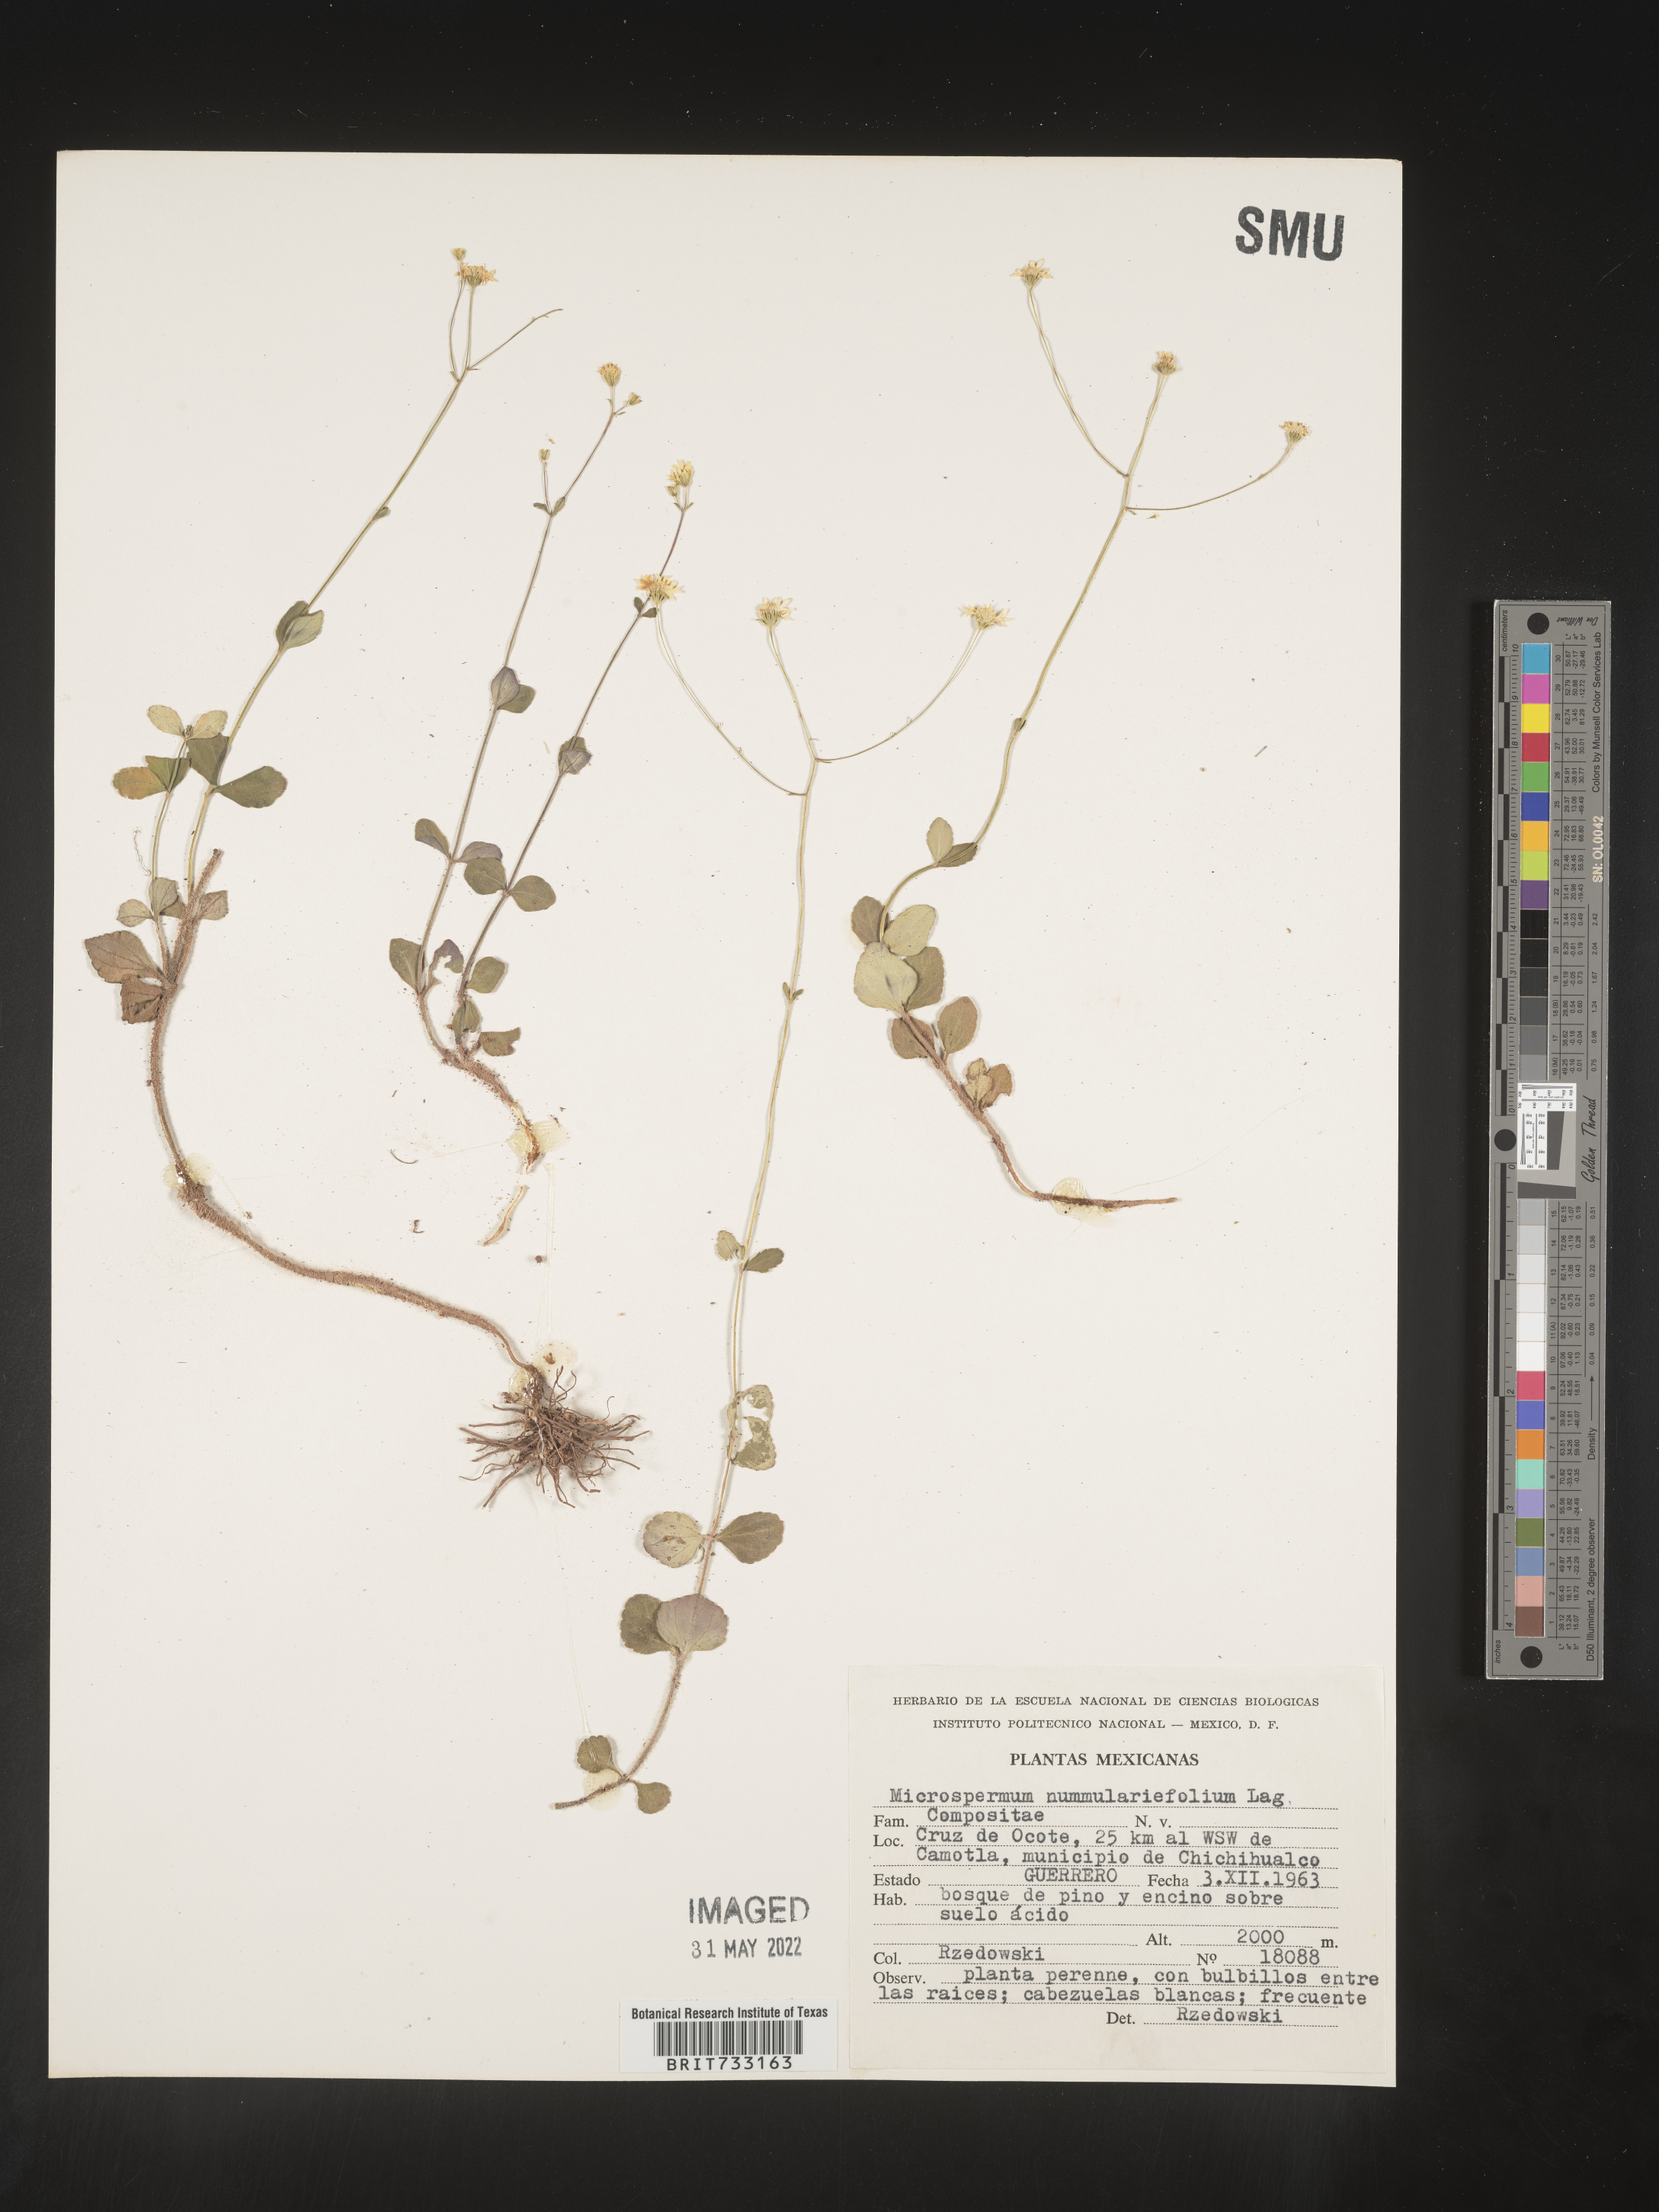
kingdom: Plantae
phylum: Tracheophyta
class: Magnoliopsida
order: Asterales
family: Asteraceae
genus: Microspermum
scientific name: Microspermum
